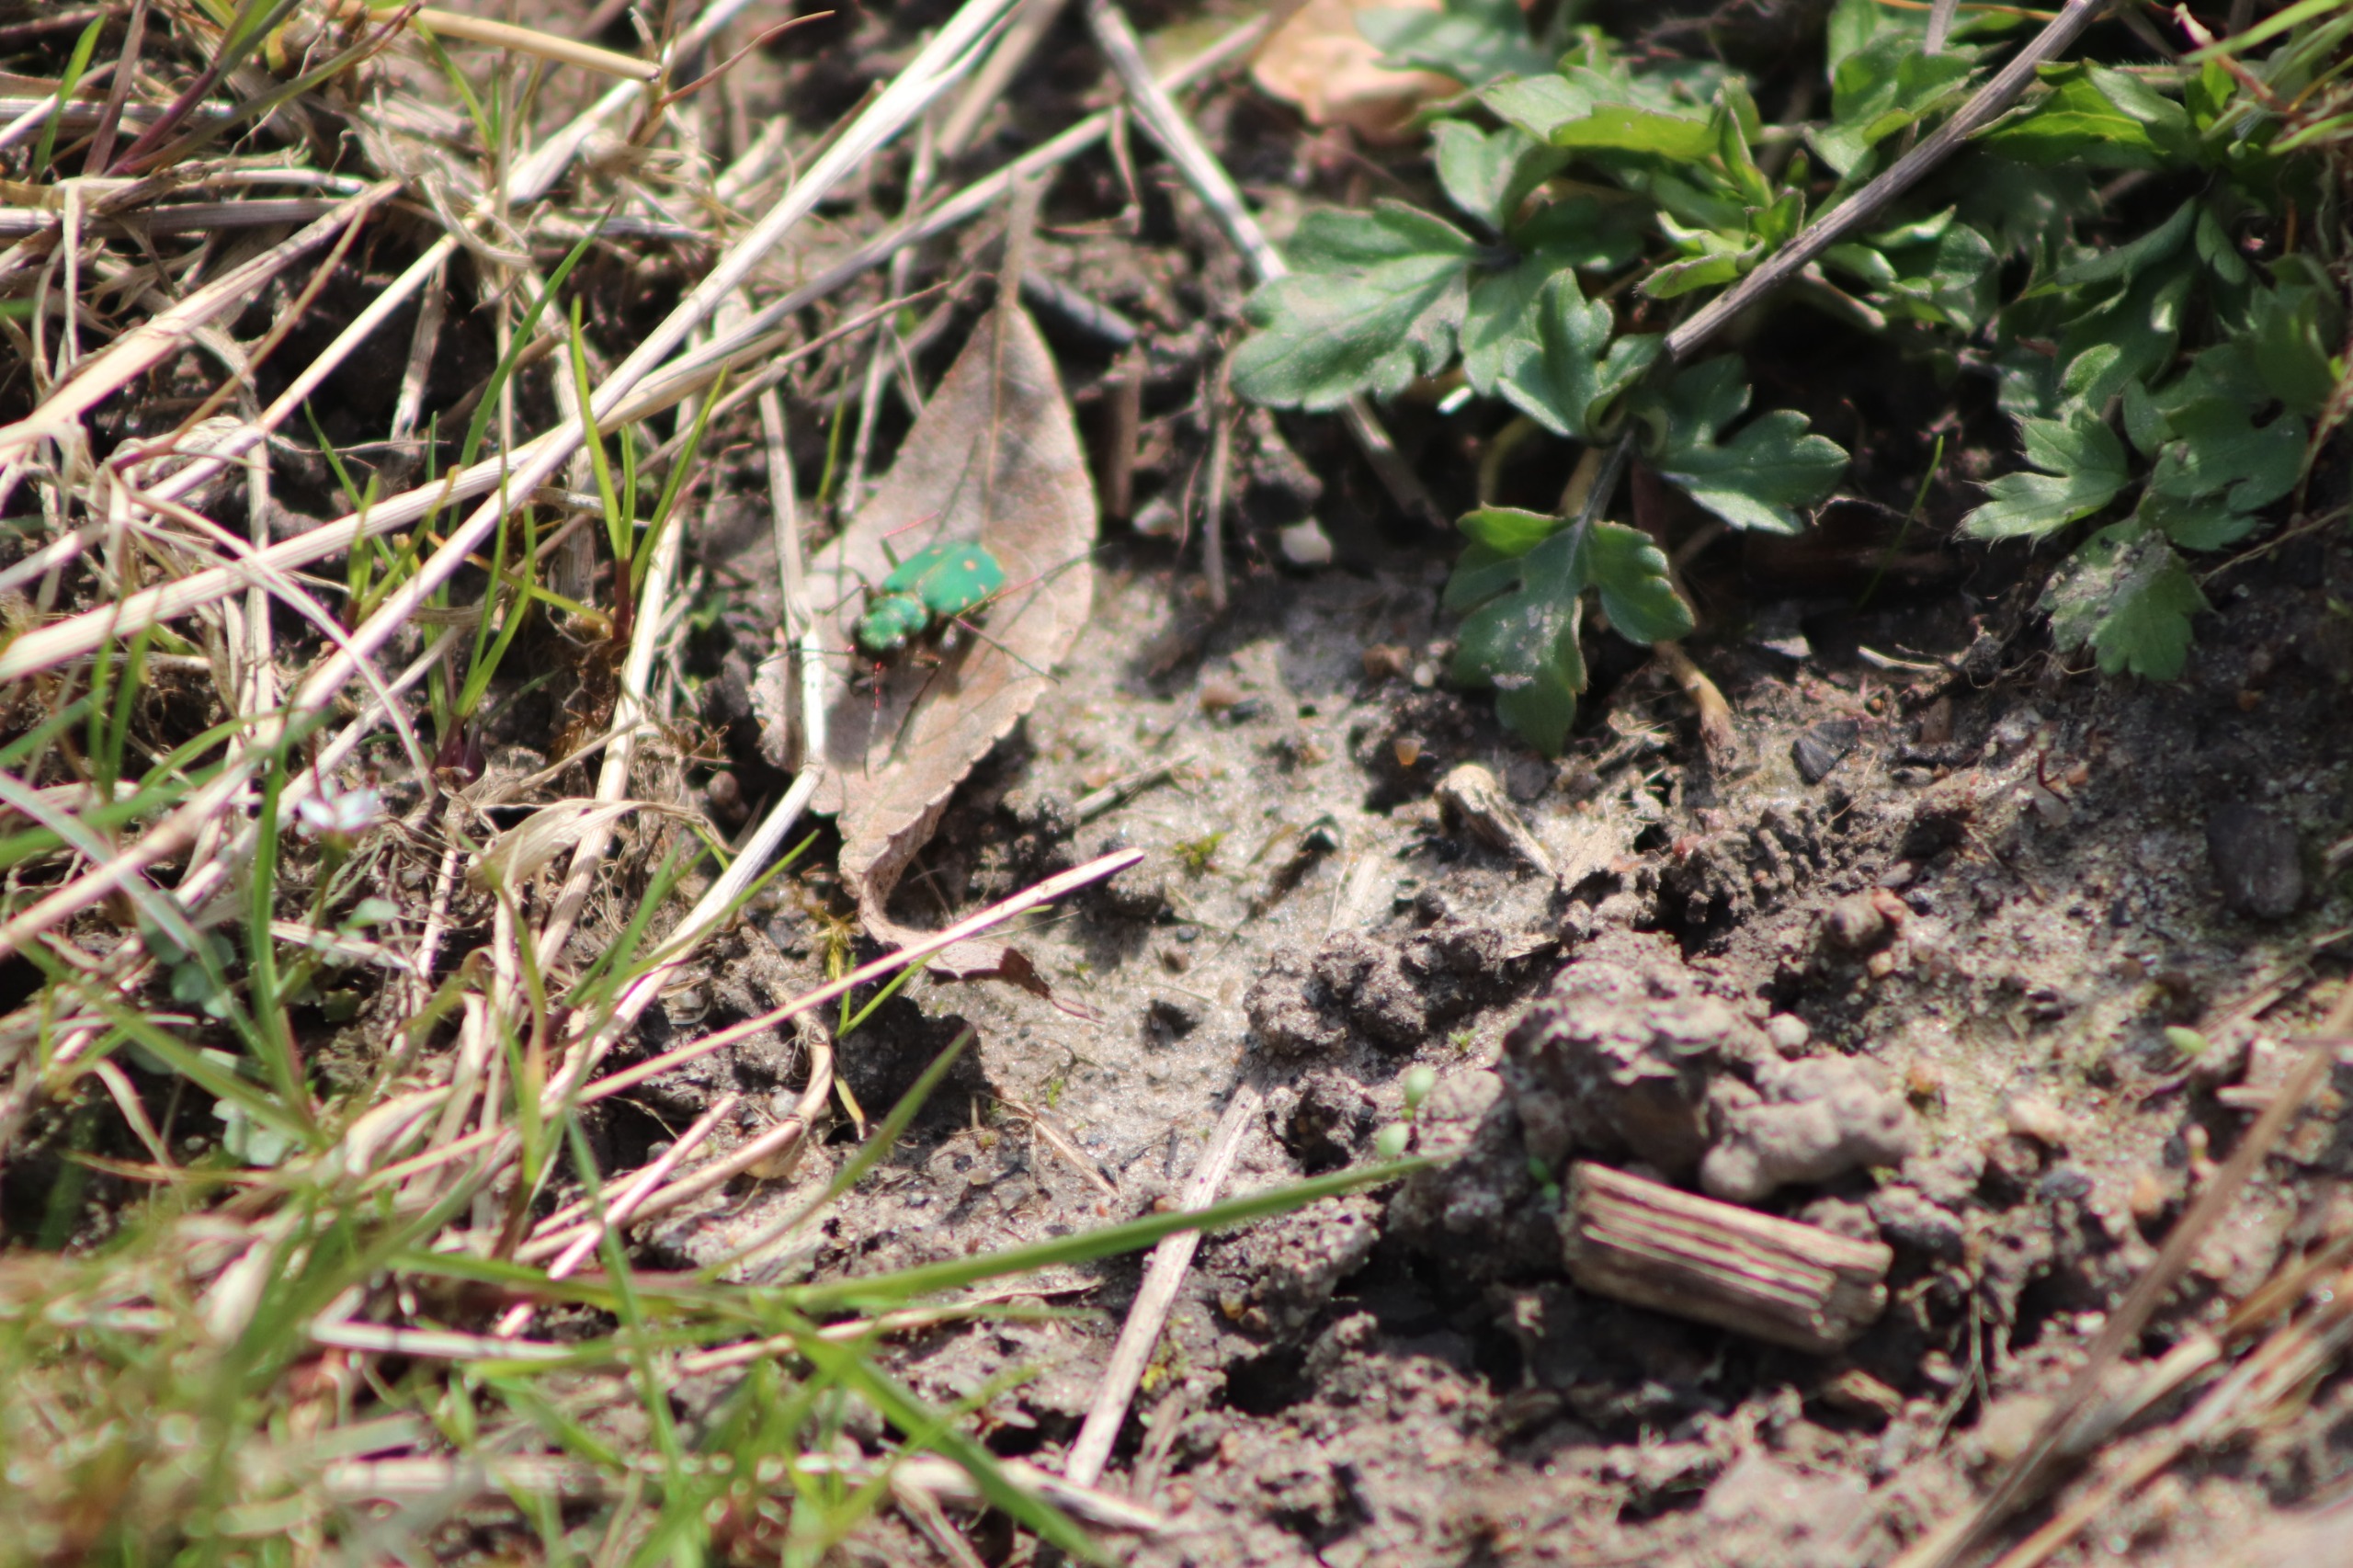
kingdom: Animalia
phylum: Arthropoda
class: Insecta
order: Coleoptera
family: Carabidae
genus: Cicindela
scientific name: Cicindela campestris
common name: Grøn sandspringer
